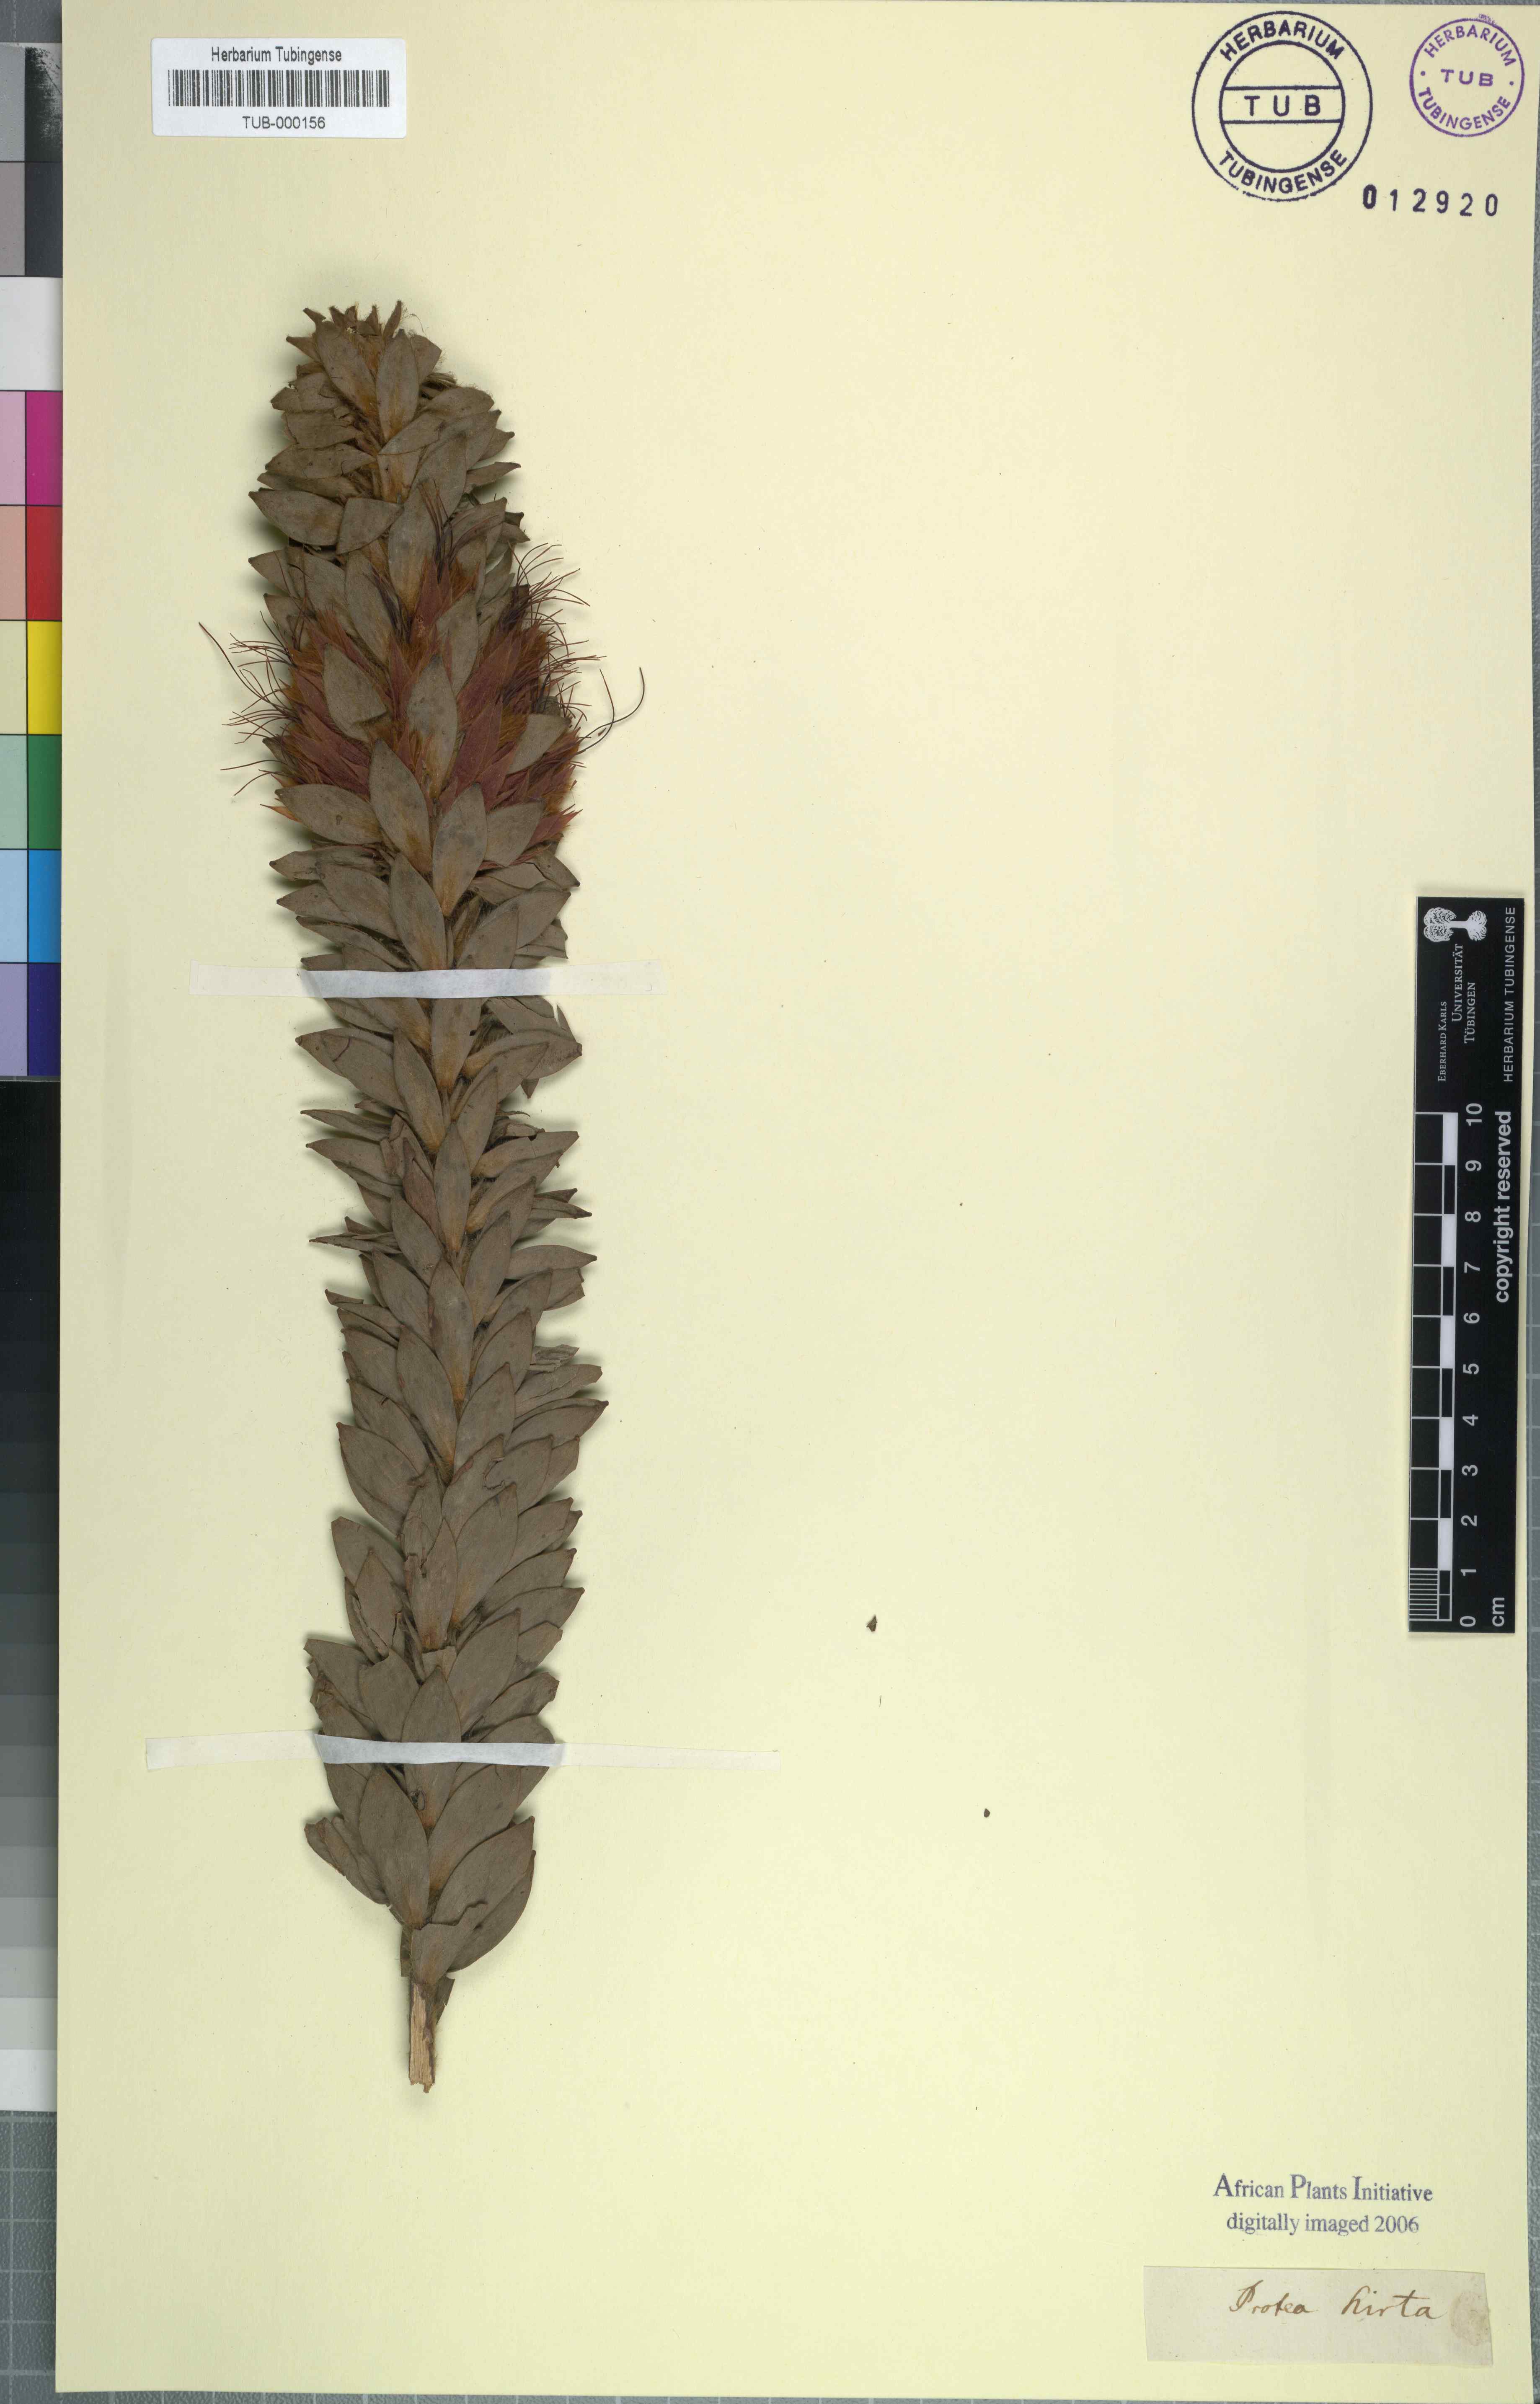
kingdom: Plantae
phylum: Tracheophyta
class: Magnoliopsida
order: Proteales
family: Proteaceae
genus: Protea
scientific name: Protea welwitschii
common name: Cluster-head protea
